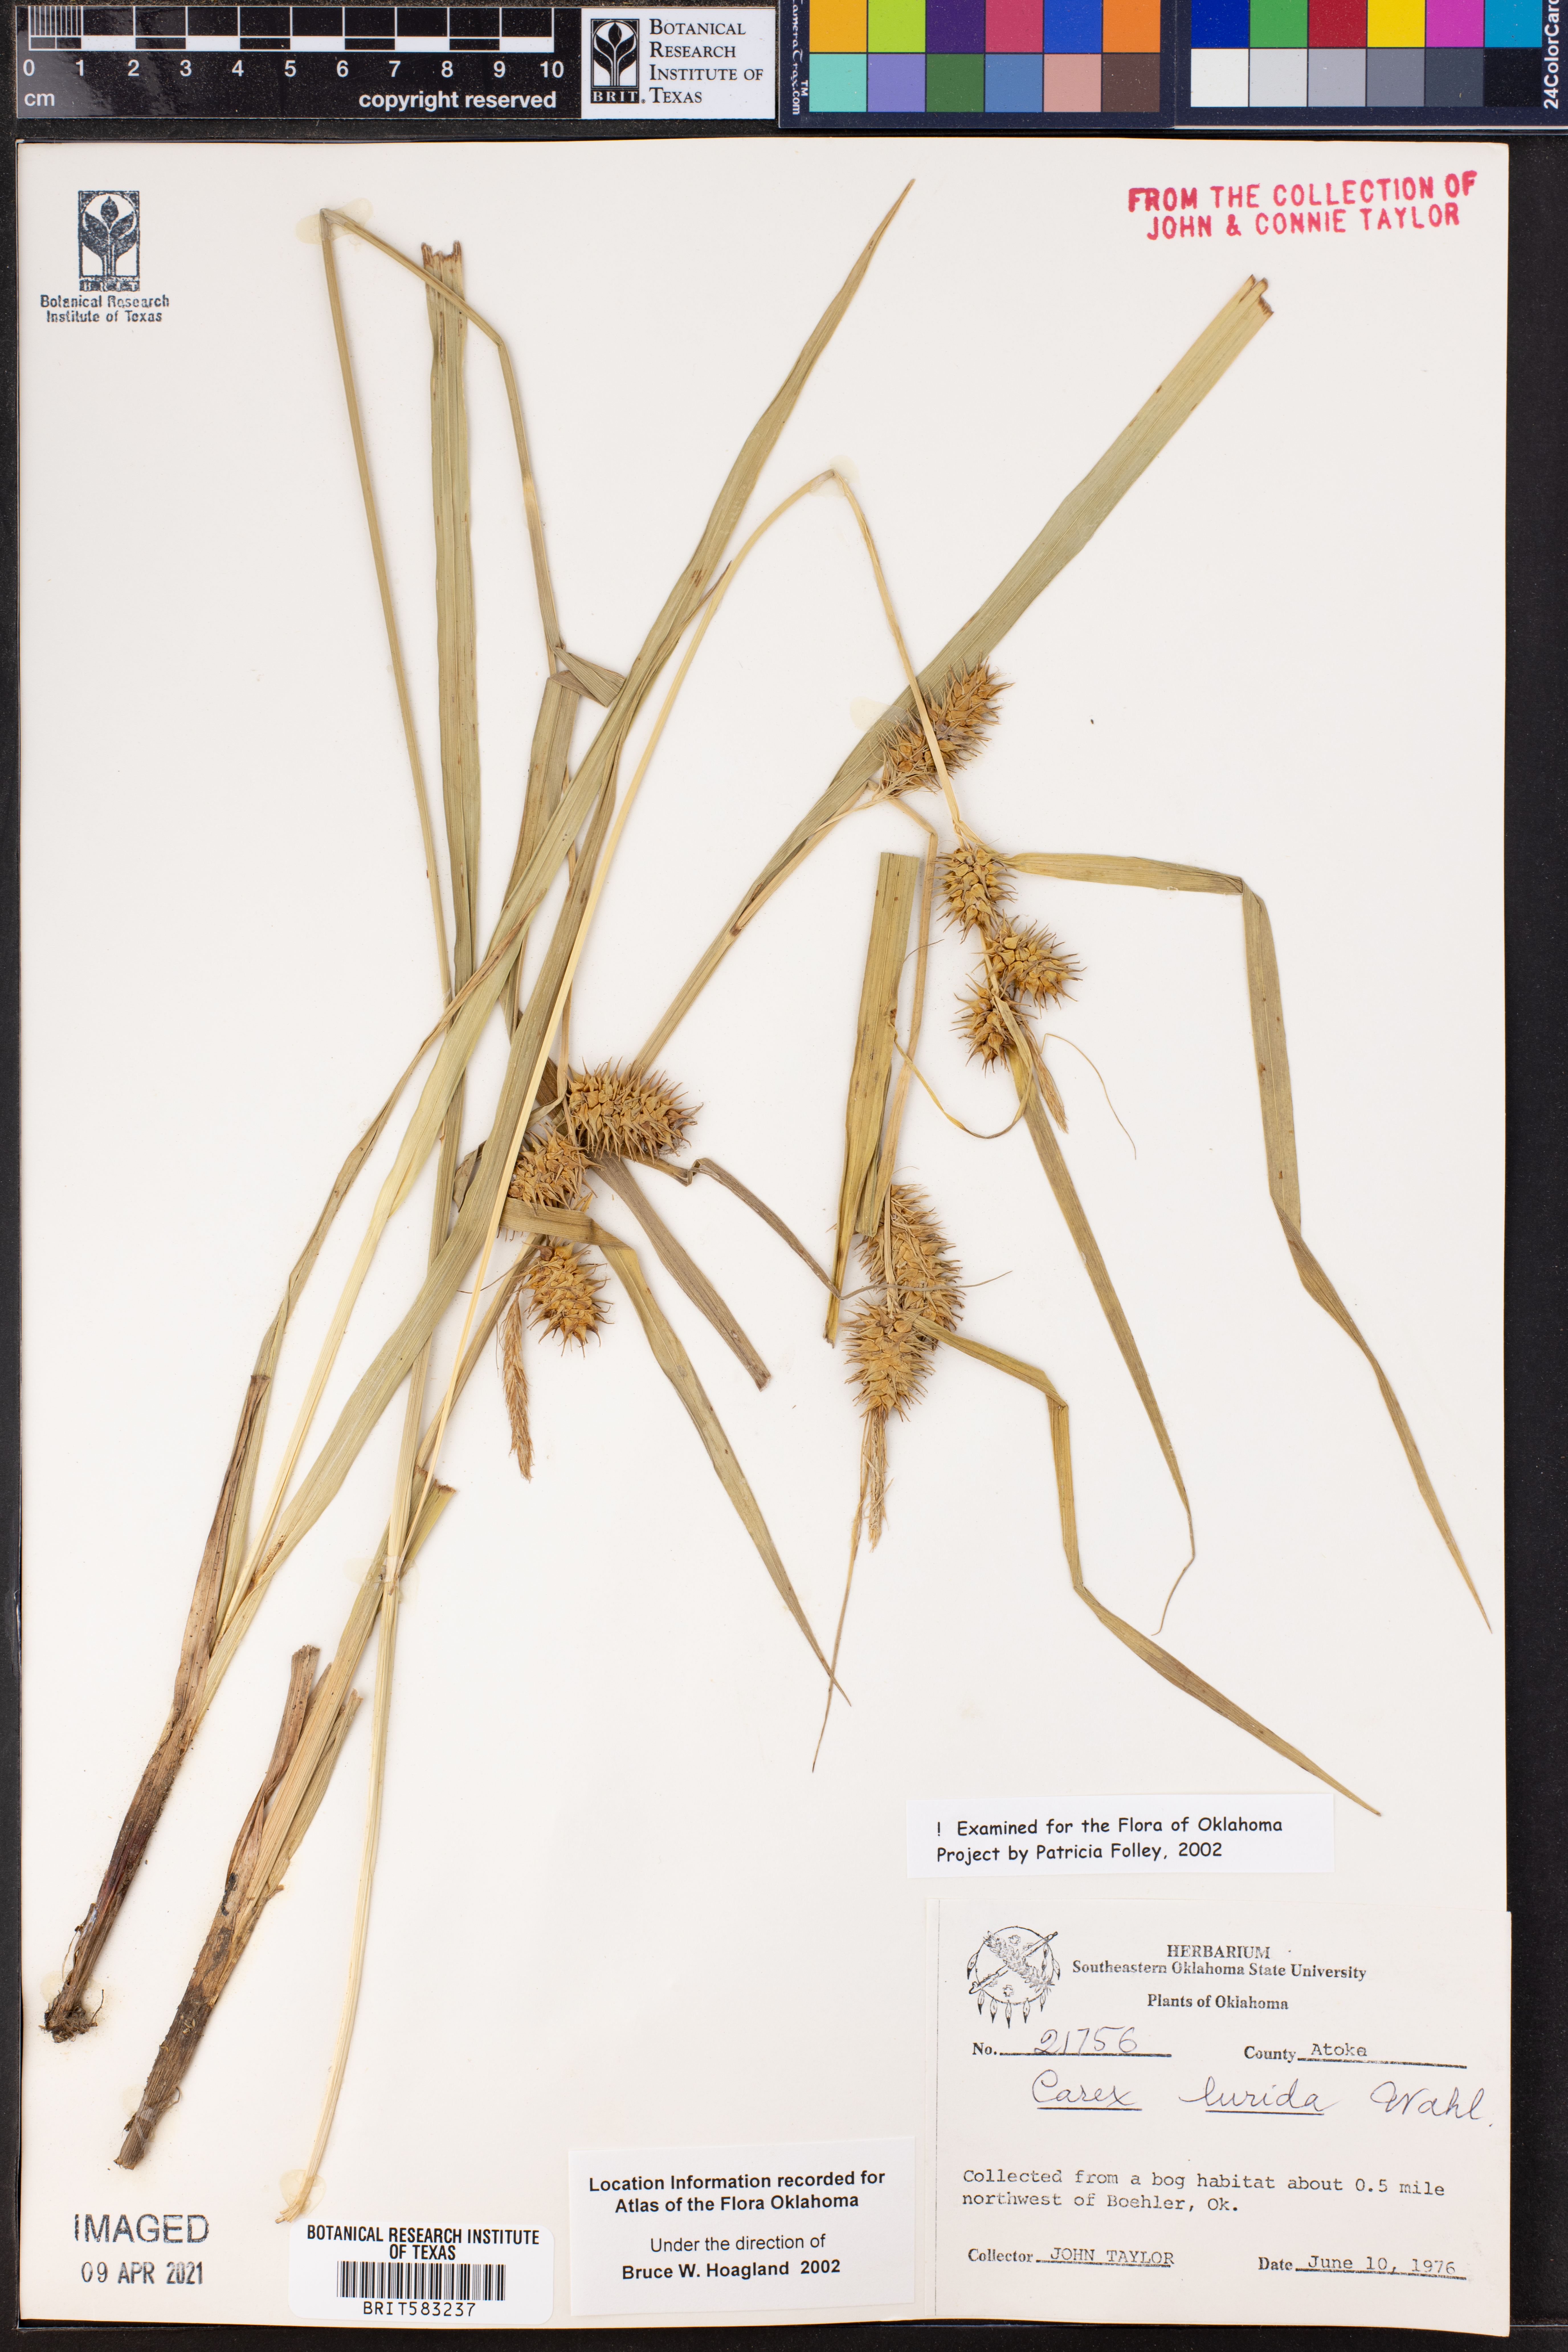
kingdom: Plantae
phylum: Tracheophyta
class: Liliopsida
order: Poales
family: Cyperaceae
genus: Carex
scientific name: Carex lurida
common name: Sallow sedge
